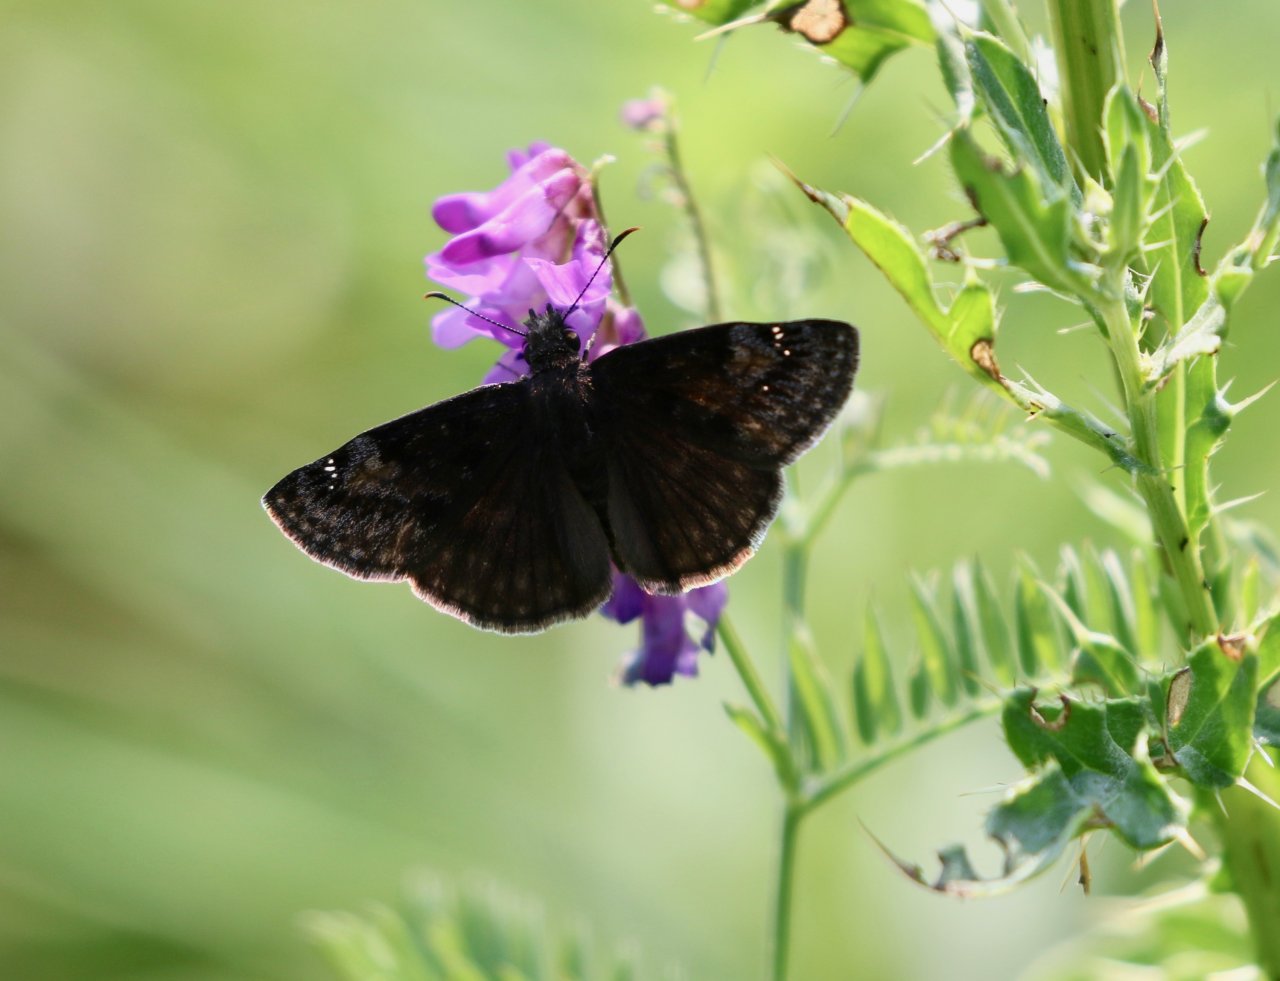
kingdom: Animalia
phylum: Arthropoda
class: Insecta
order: Lepidoptera
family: Hesperiidae
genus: Gesta
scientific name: Gesta
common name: Wild Indigo Duskywing
